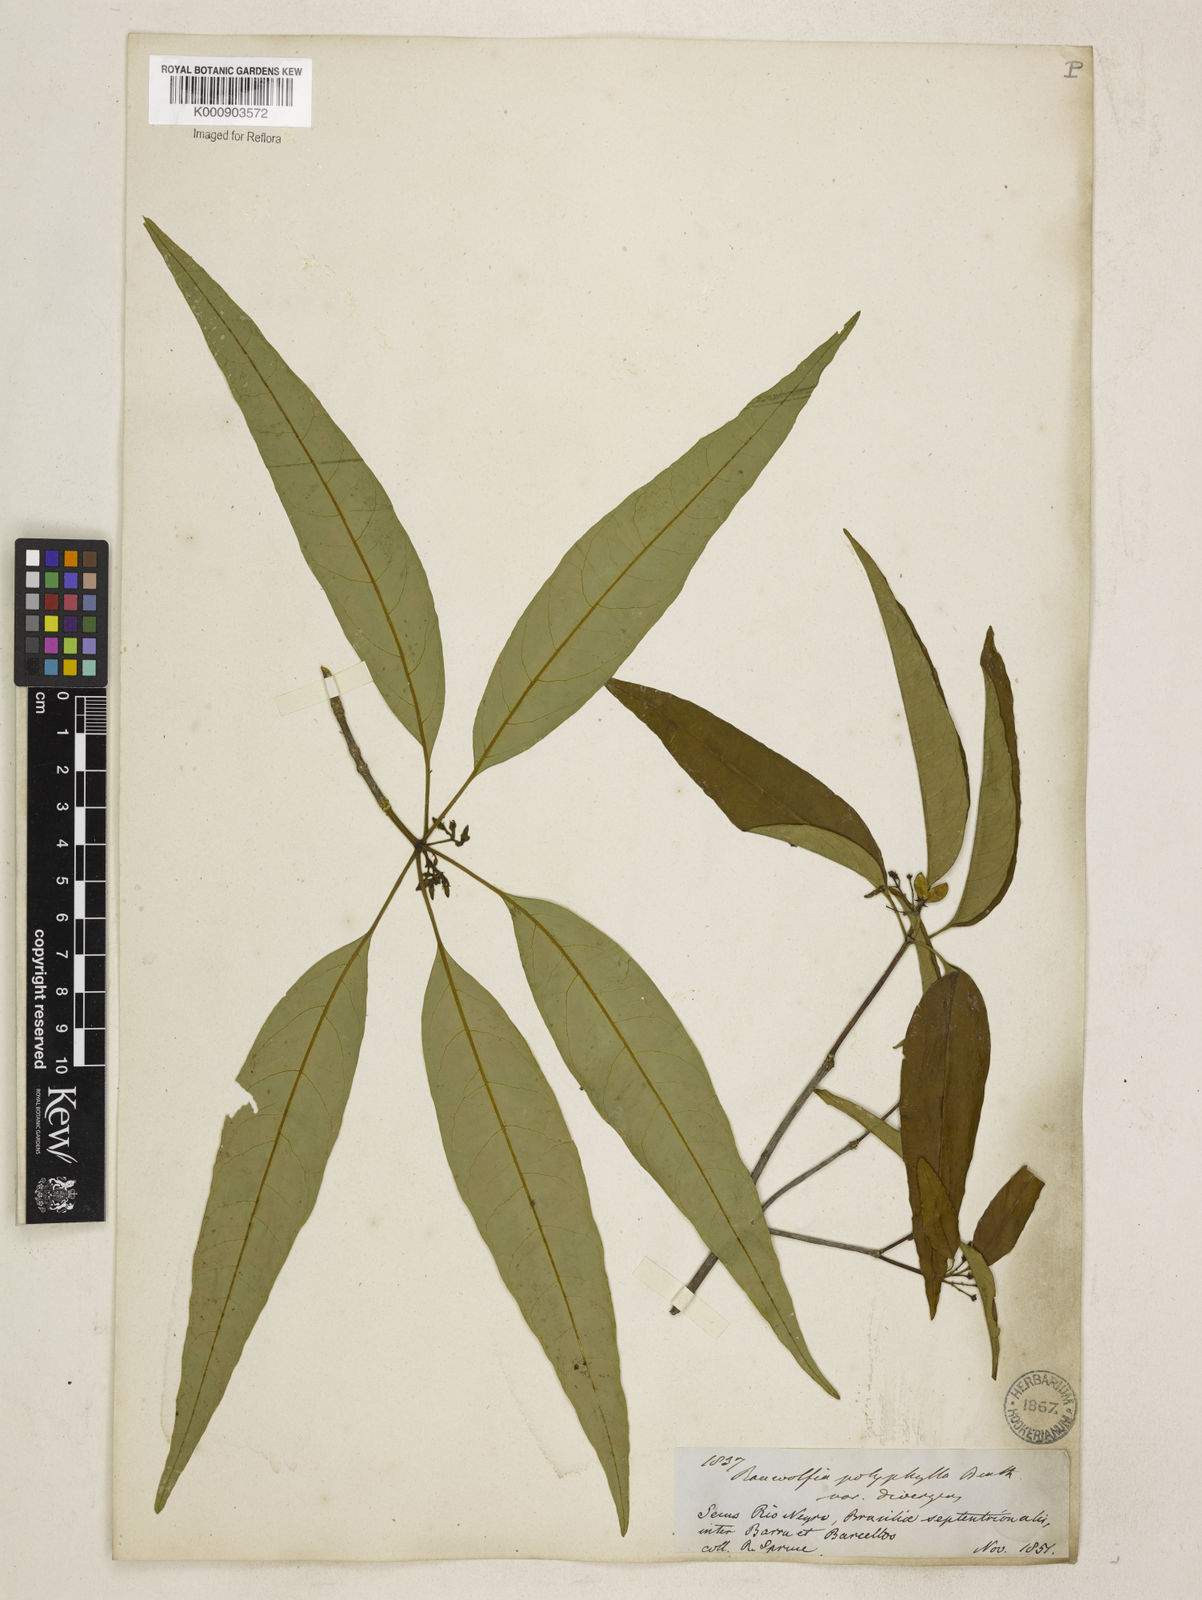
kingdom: Plantae
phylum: Tracheophyta
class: Magnoliopsida
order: Gentianales
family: Apocynaceae
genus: Rauvolfia
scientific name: Rauvolfia polyphylla
